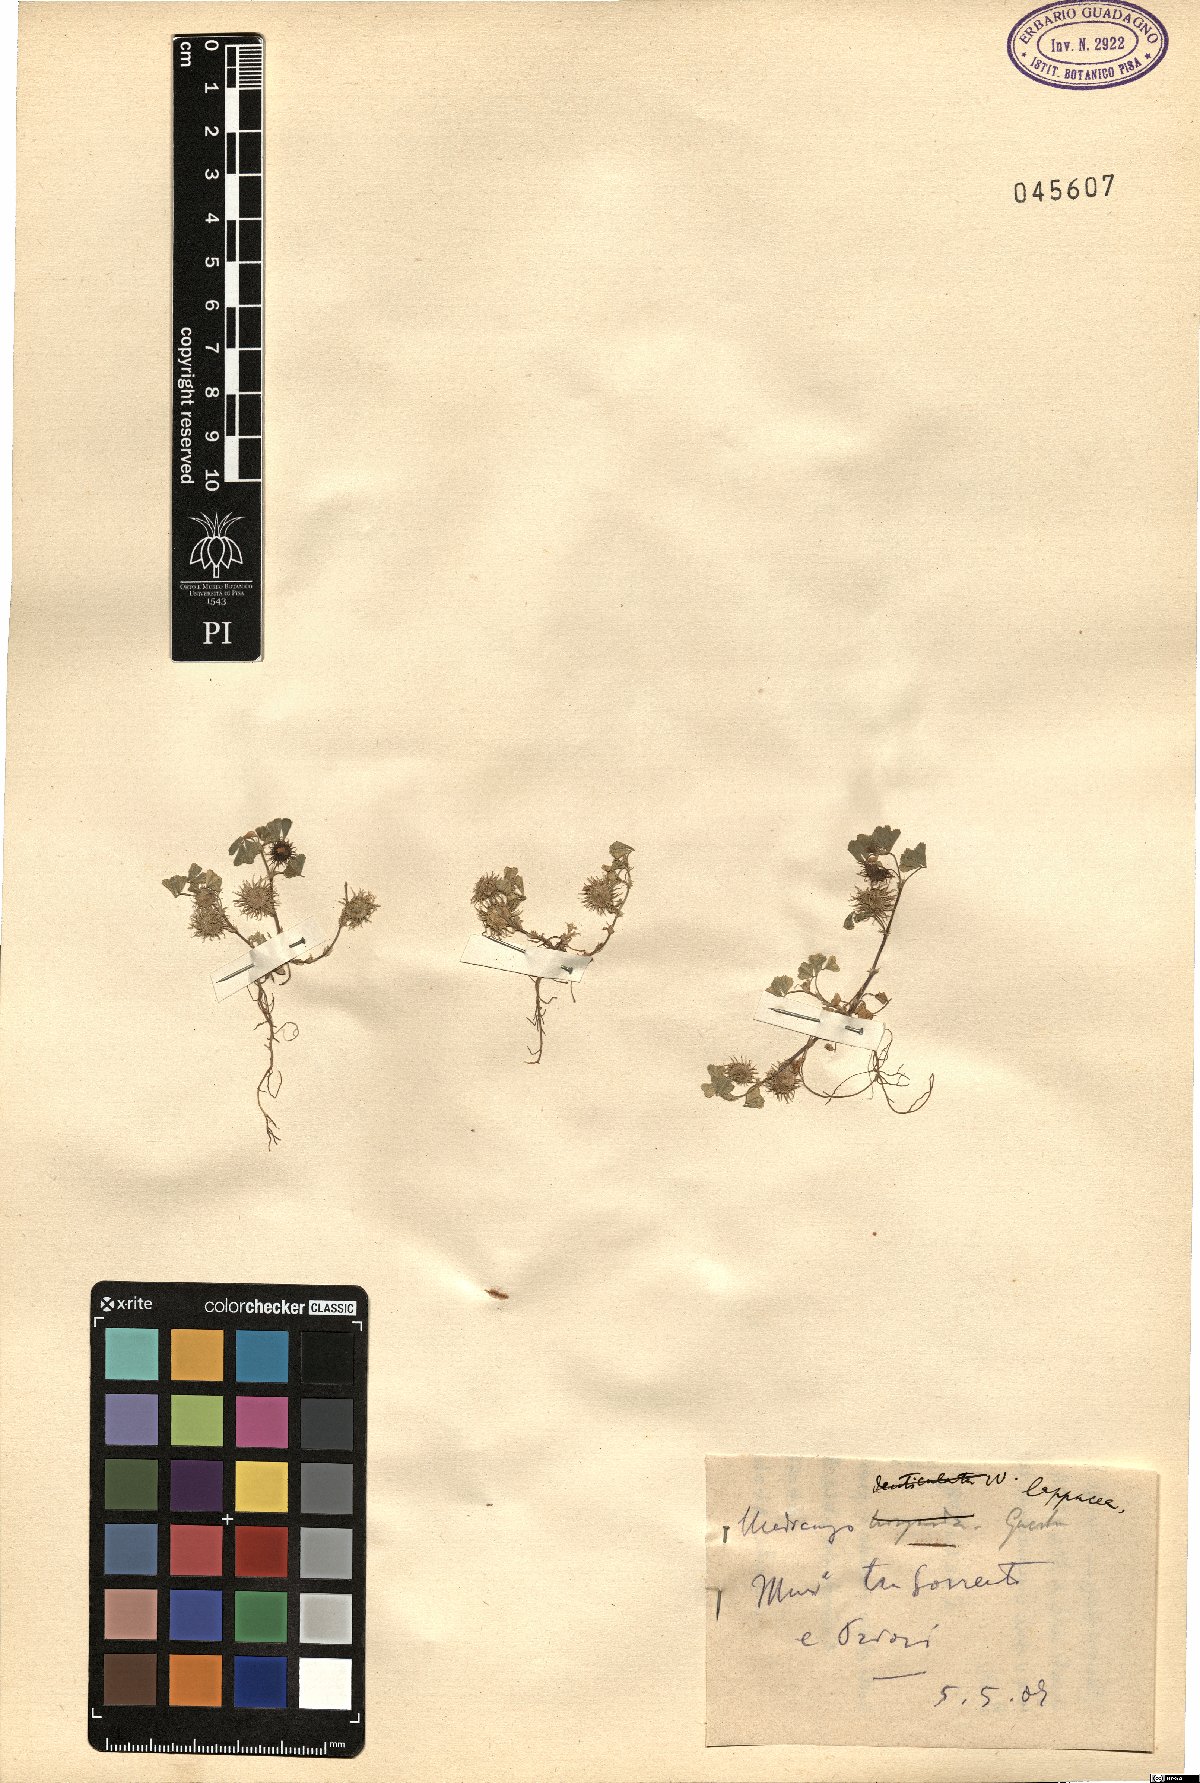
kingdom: Plantae
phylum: Tracheophyta
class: Magnoliopsida
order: Fabales
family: Fabaceae
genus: Medicago
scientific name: Medicago polymorpha
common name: Burclover
